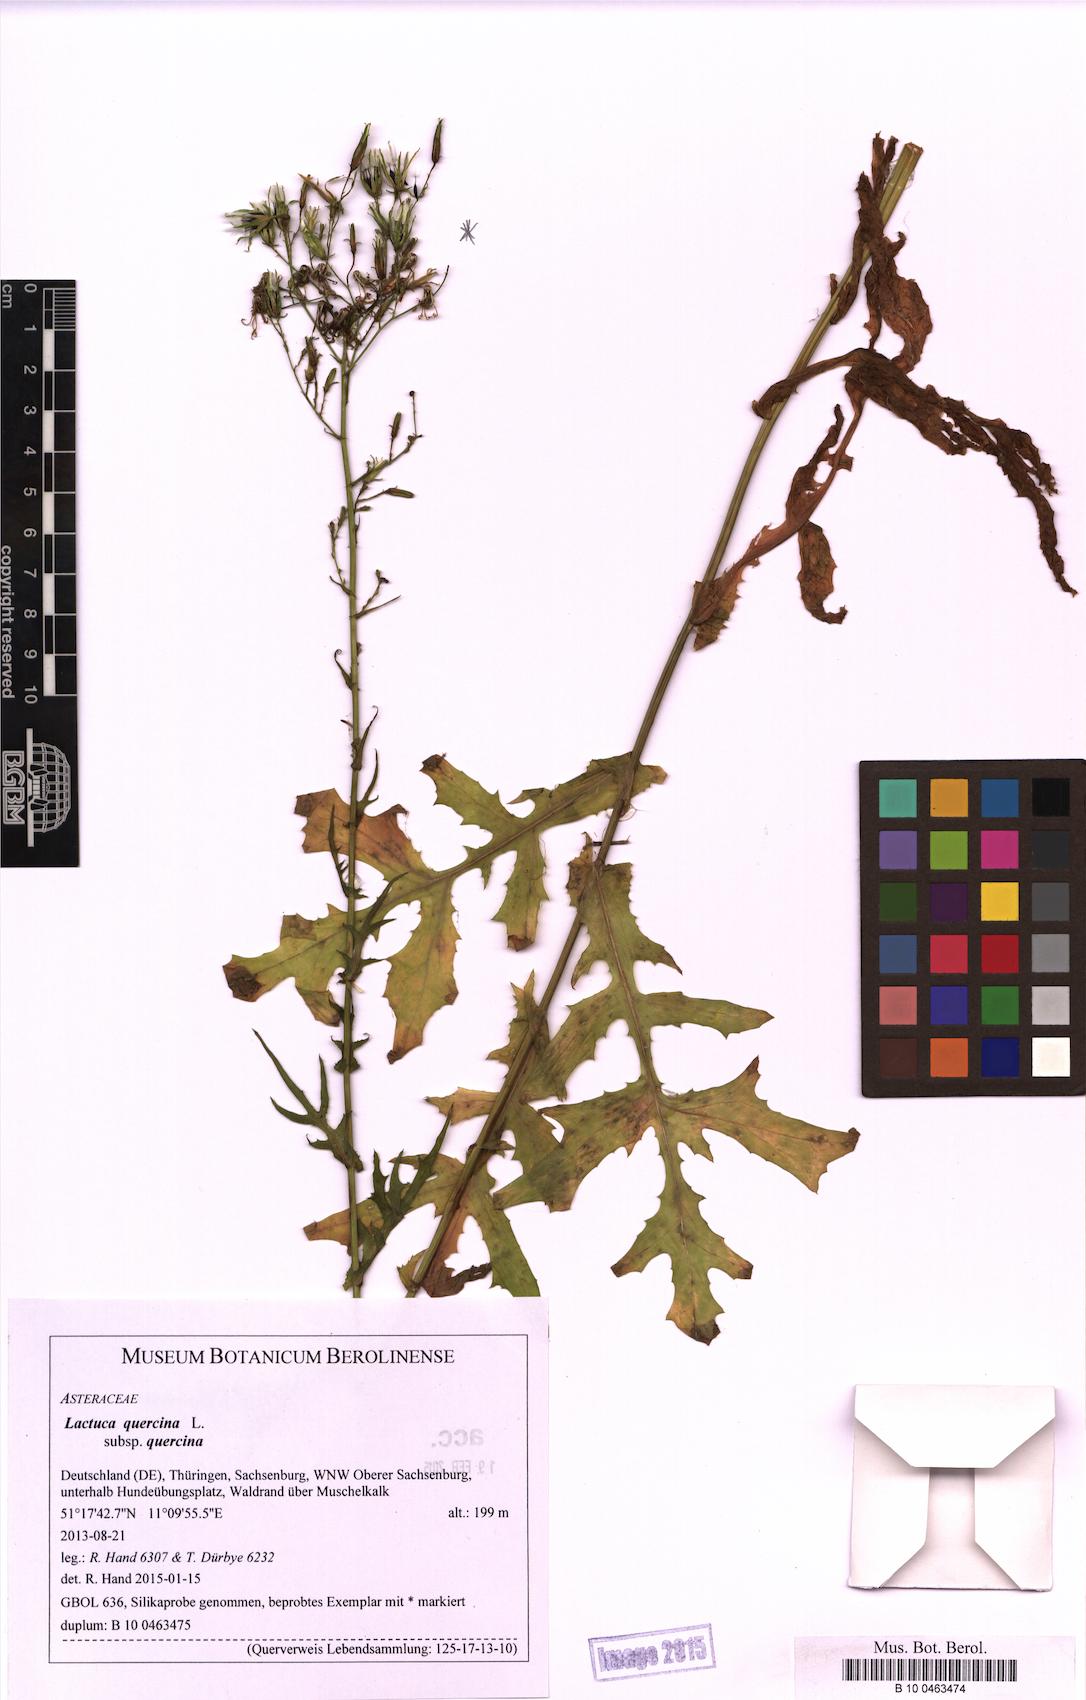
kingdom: Plantae
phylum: Tracheophyta
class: Magnoliopsida
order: Asterales
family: Asteraceae
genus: Lactuca
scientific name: Lactuca quercina
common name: Wild lettuce
